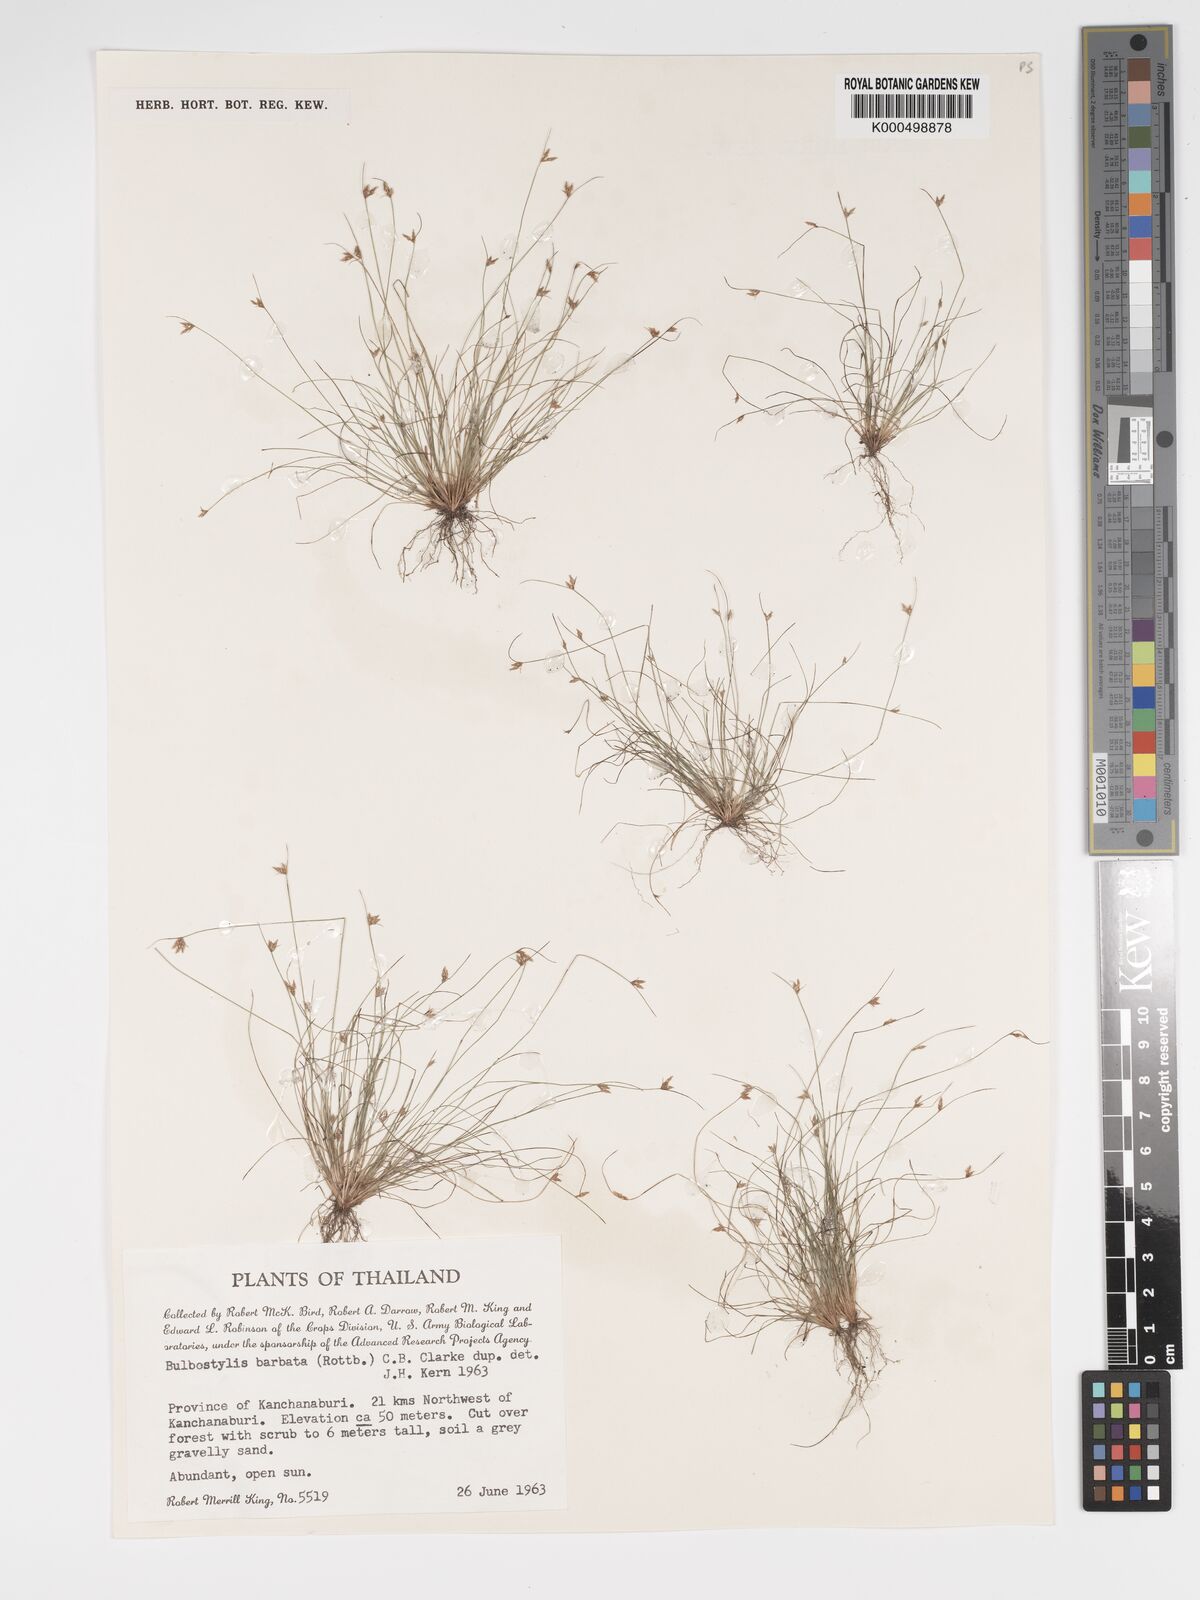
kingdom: Plantae
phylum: Tracheophyta
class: Liliopsida
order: Poales
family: Cyperaceae
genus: Bulbostylis
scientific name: Bulbostylis barbata
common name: Watergrass
